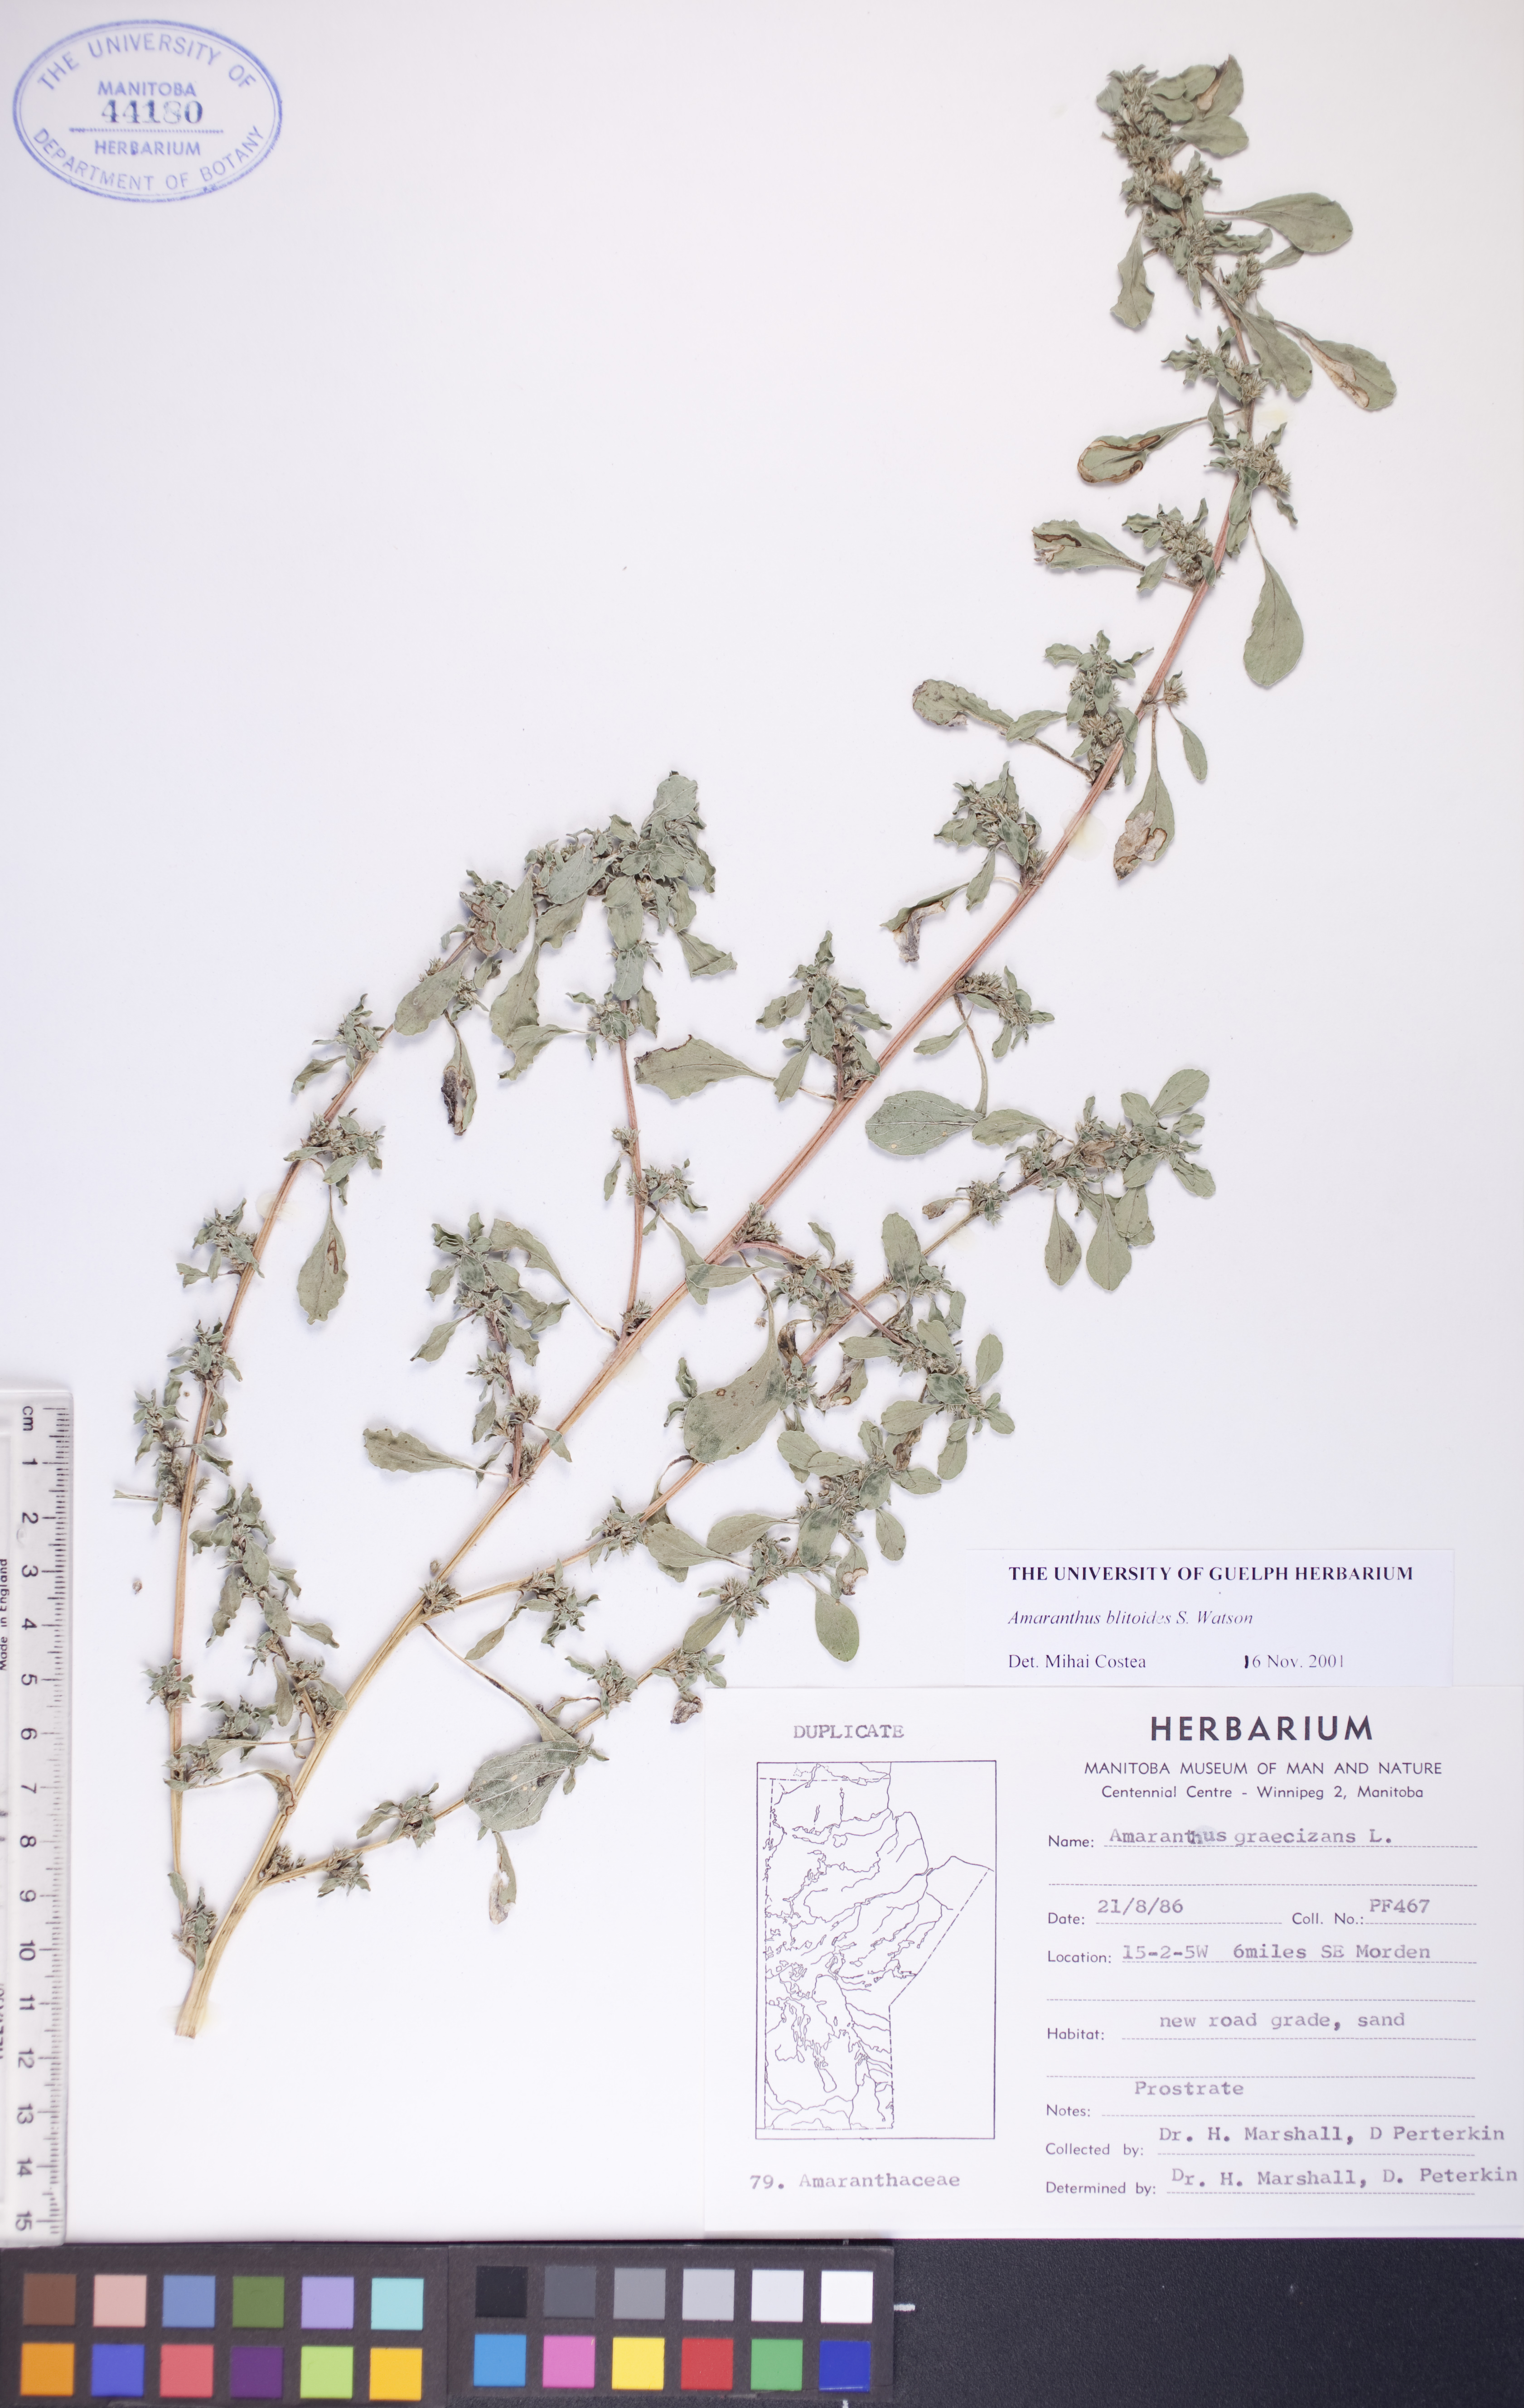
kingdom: Plantae
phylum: Tracheophyta
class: Magnoliopsida
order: Caryophyllales
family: Amaranthaceae
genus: Amaranthus
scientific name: Amaranthus blitoides
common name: Prostrate pigweed
